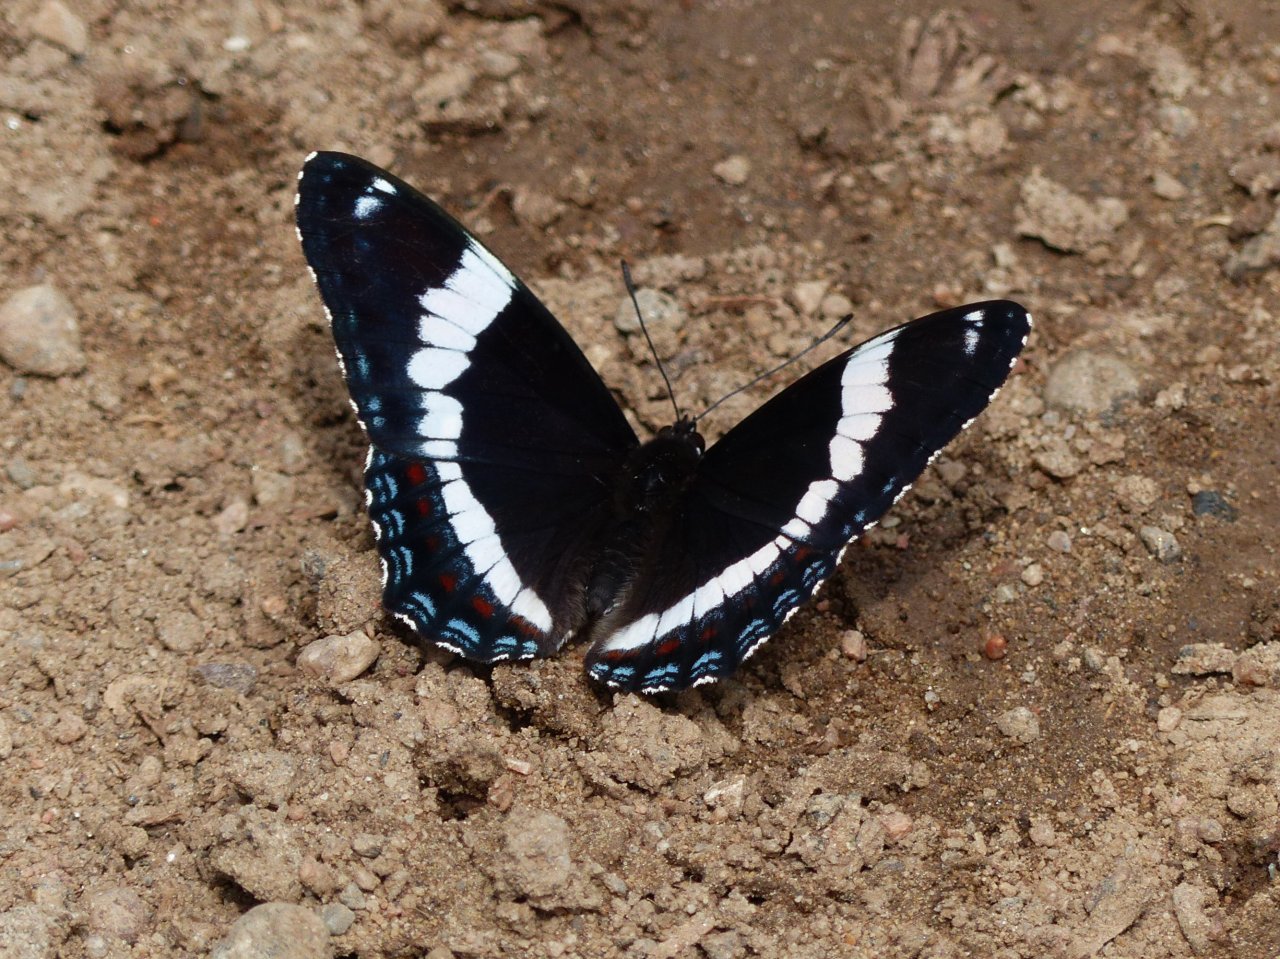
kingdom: Animalia
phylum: Arthropoda
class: Insecta
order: Lepidoptera
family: Nymphalidae
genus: Limenitis
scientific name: Limenitis arthemis
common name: Red-spotted Admiral
